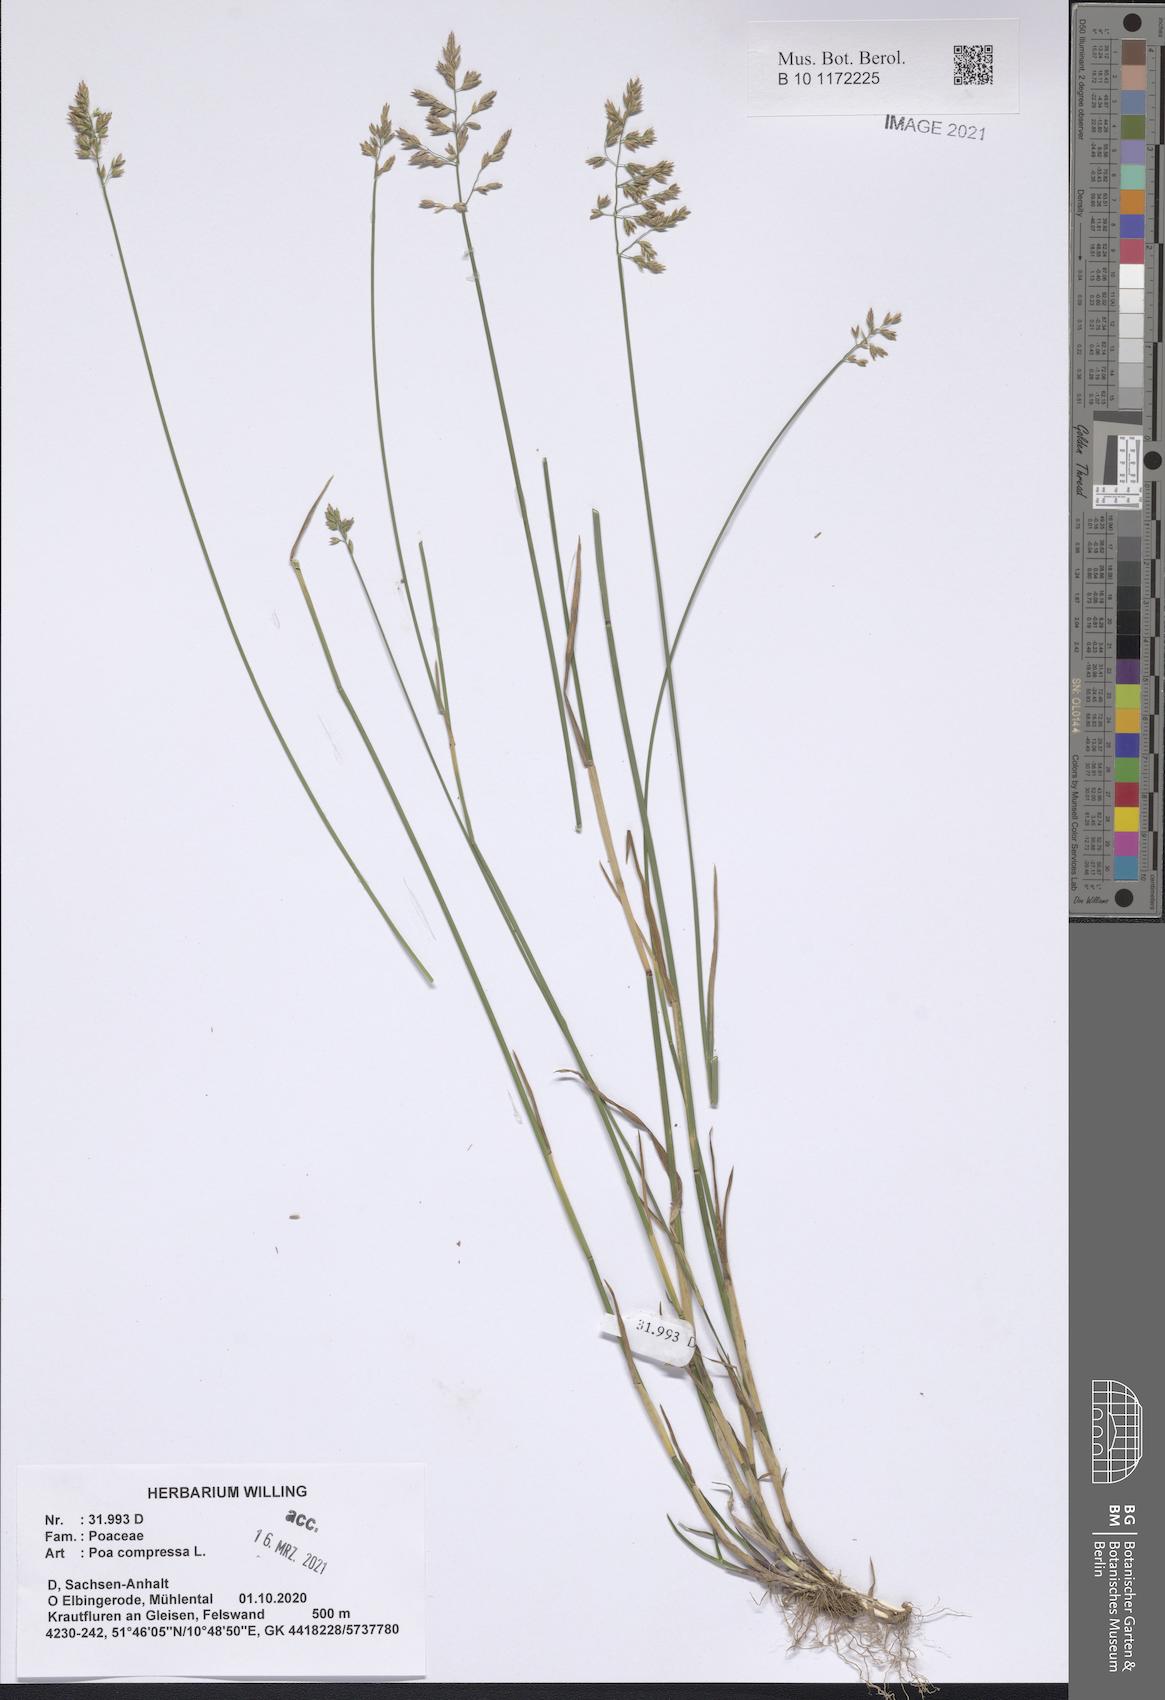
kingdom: Plantae
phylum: Tracheophyta
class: Liliopsida
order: Poales
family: Poaceae
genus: Poa
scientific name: Poa compressa
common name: Canada bluegrass
